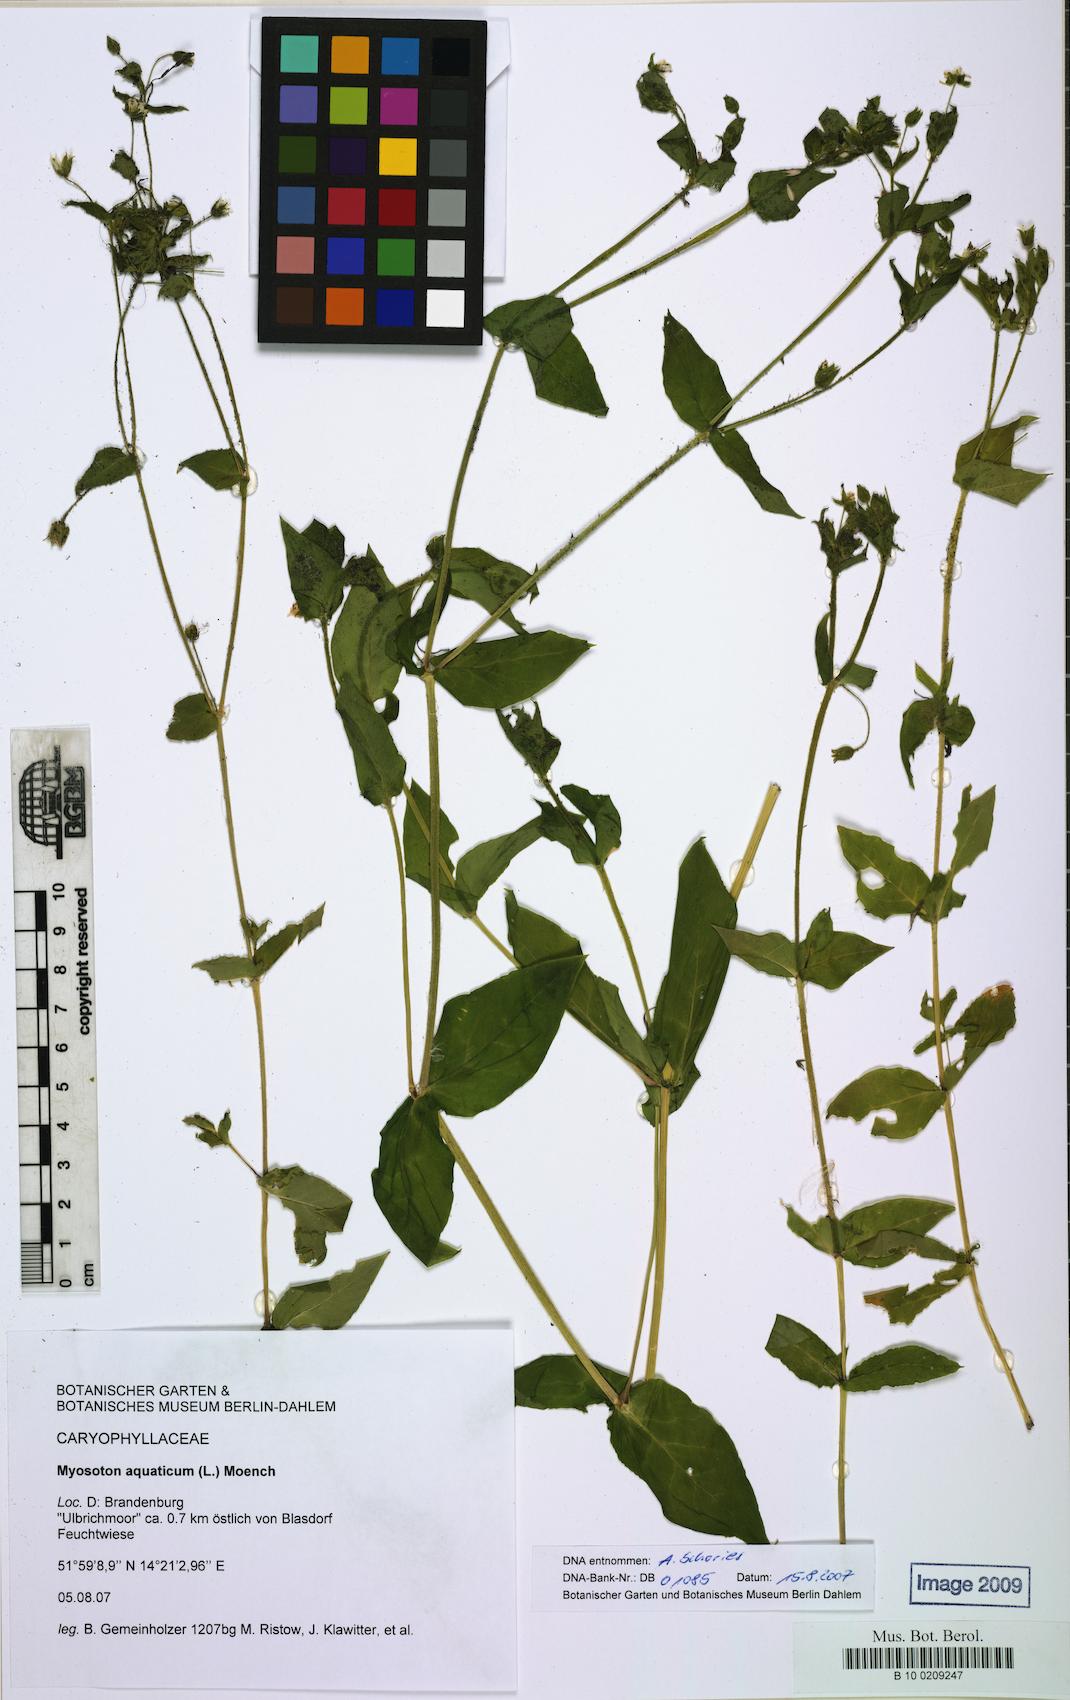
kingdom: Plantae
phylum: Tracheophyta
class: Magnoliopsida
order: Caryophyllales
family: Caryophyllaceae
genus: Stellaria
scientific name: Stellaria aquatica
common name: Water chickweed
